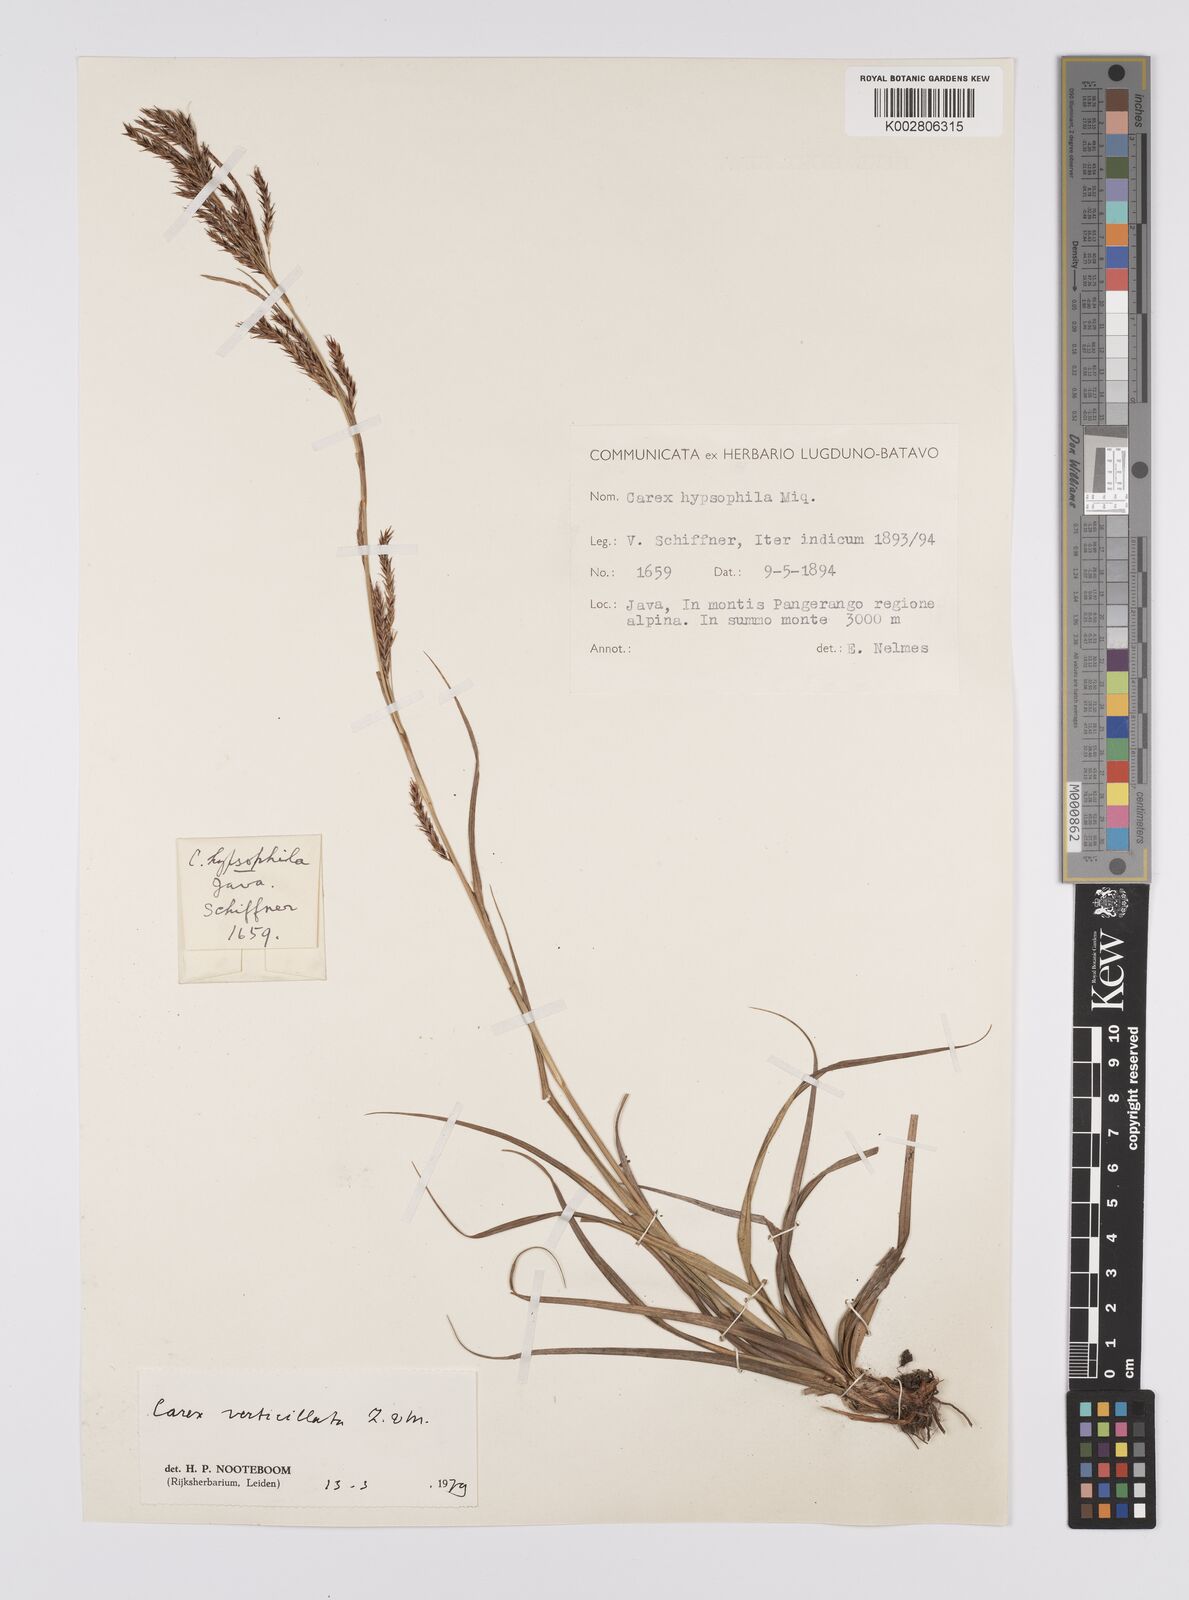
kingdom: Plantae
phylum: Tracheophyta
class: Liliopsida
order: Poales
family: Cyperaceae
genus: Carex
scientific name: Carex verticillata
